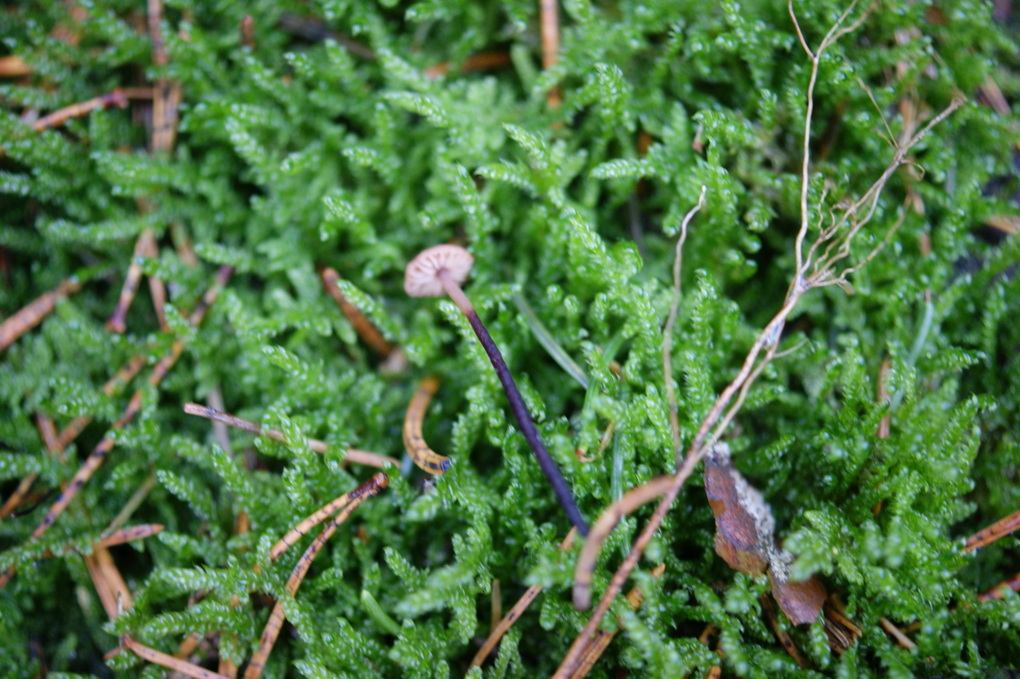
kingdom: Fungi
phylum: Basidiomycota
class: Agaricomycetes
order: Agaricales
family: Omphalotaceae
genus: Paragymnopus
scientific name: Paragymnopus perforans
